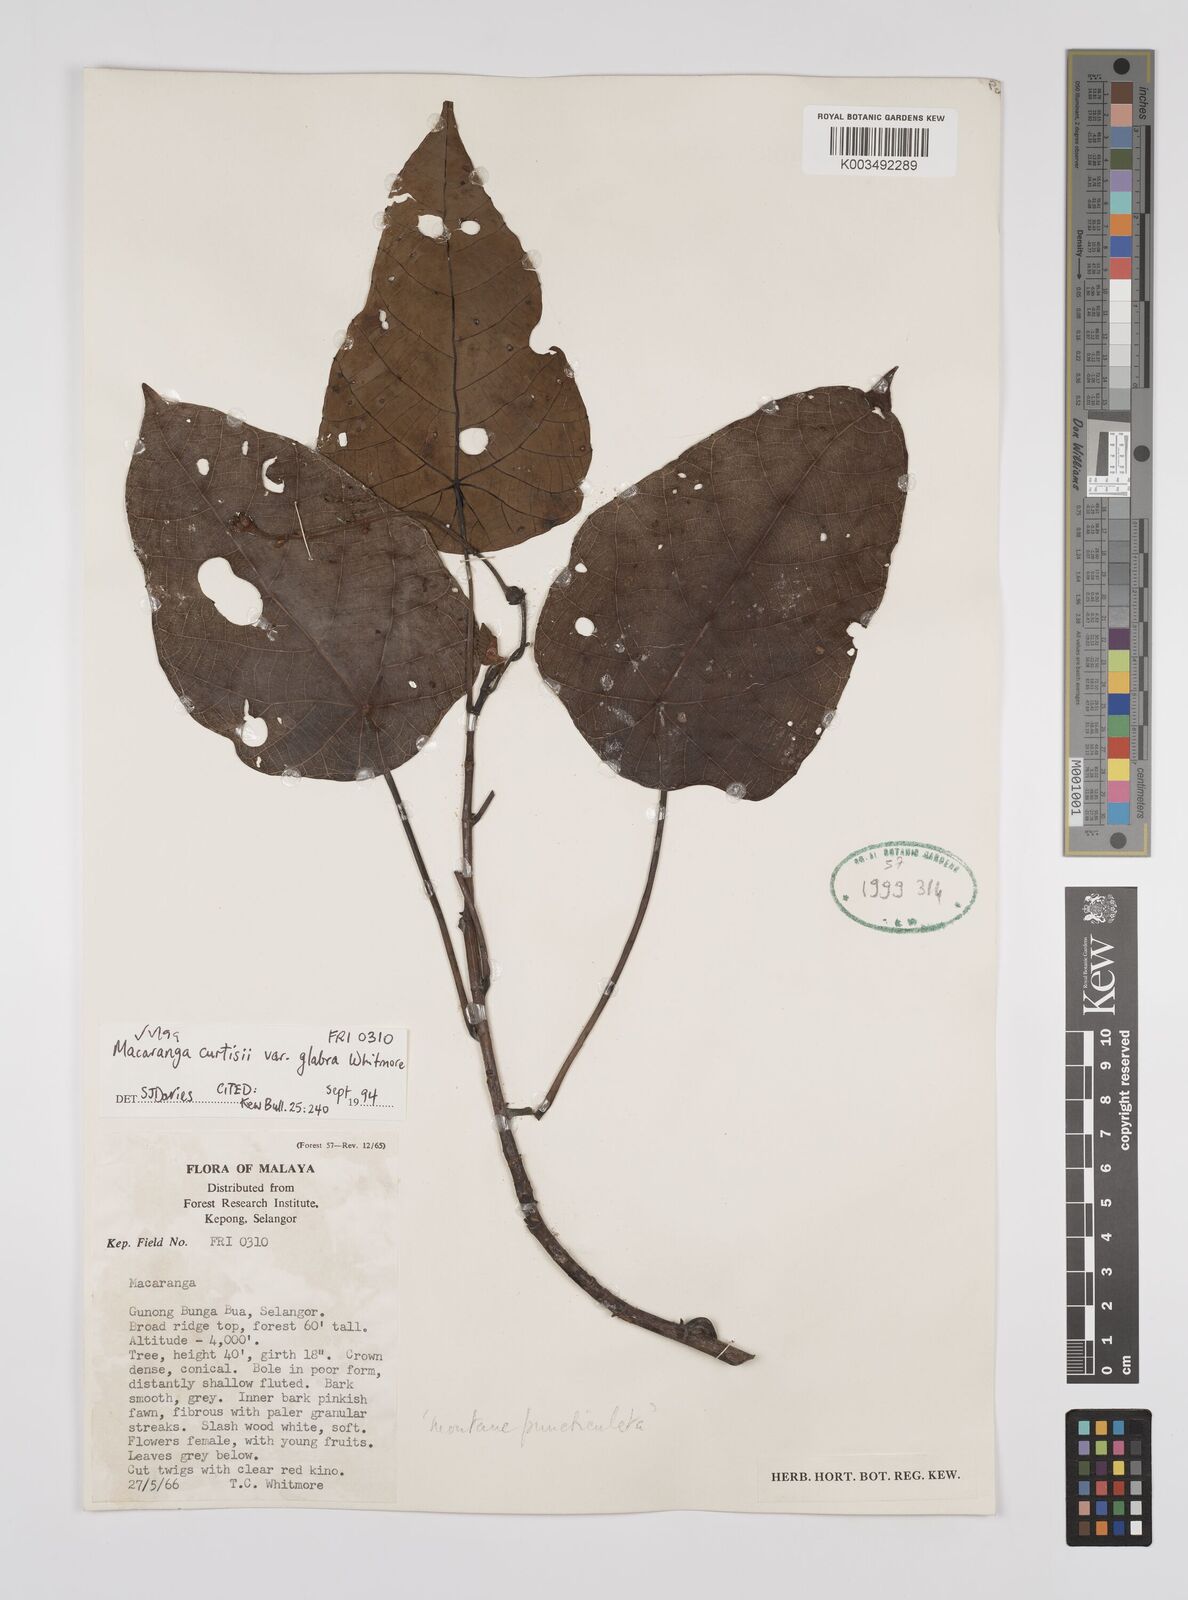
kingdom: Plantae
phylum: Tracheophyta
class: Magnoliopsida
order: Malpighiales
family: Euphorbiaceae
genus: Macaranga
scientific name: Macaranga pachyphylla
